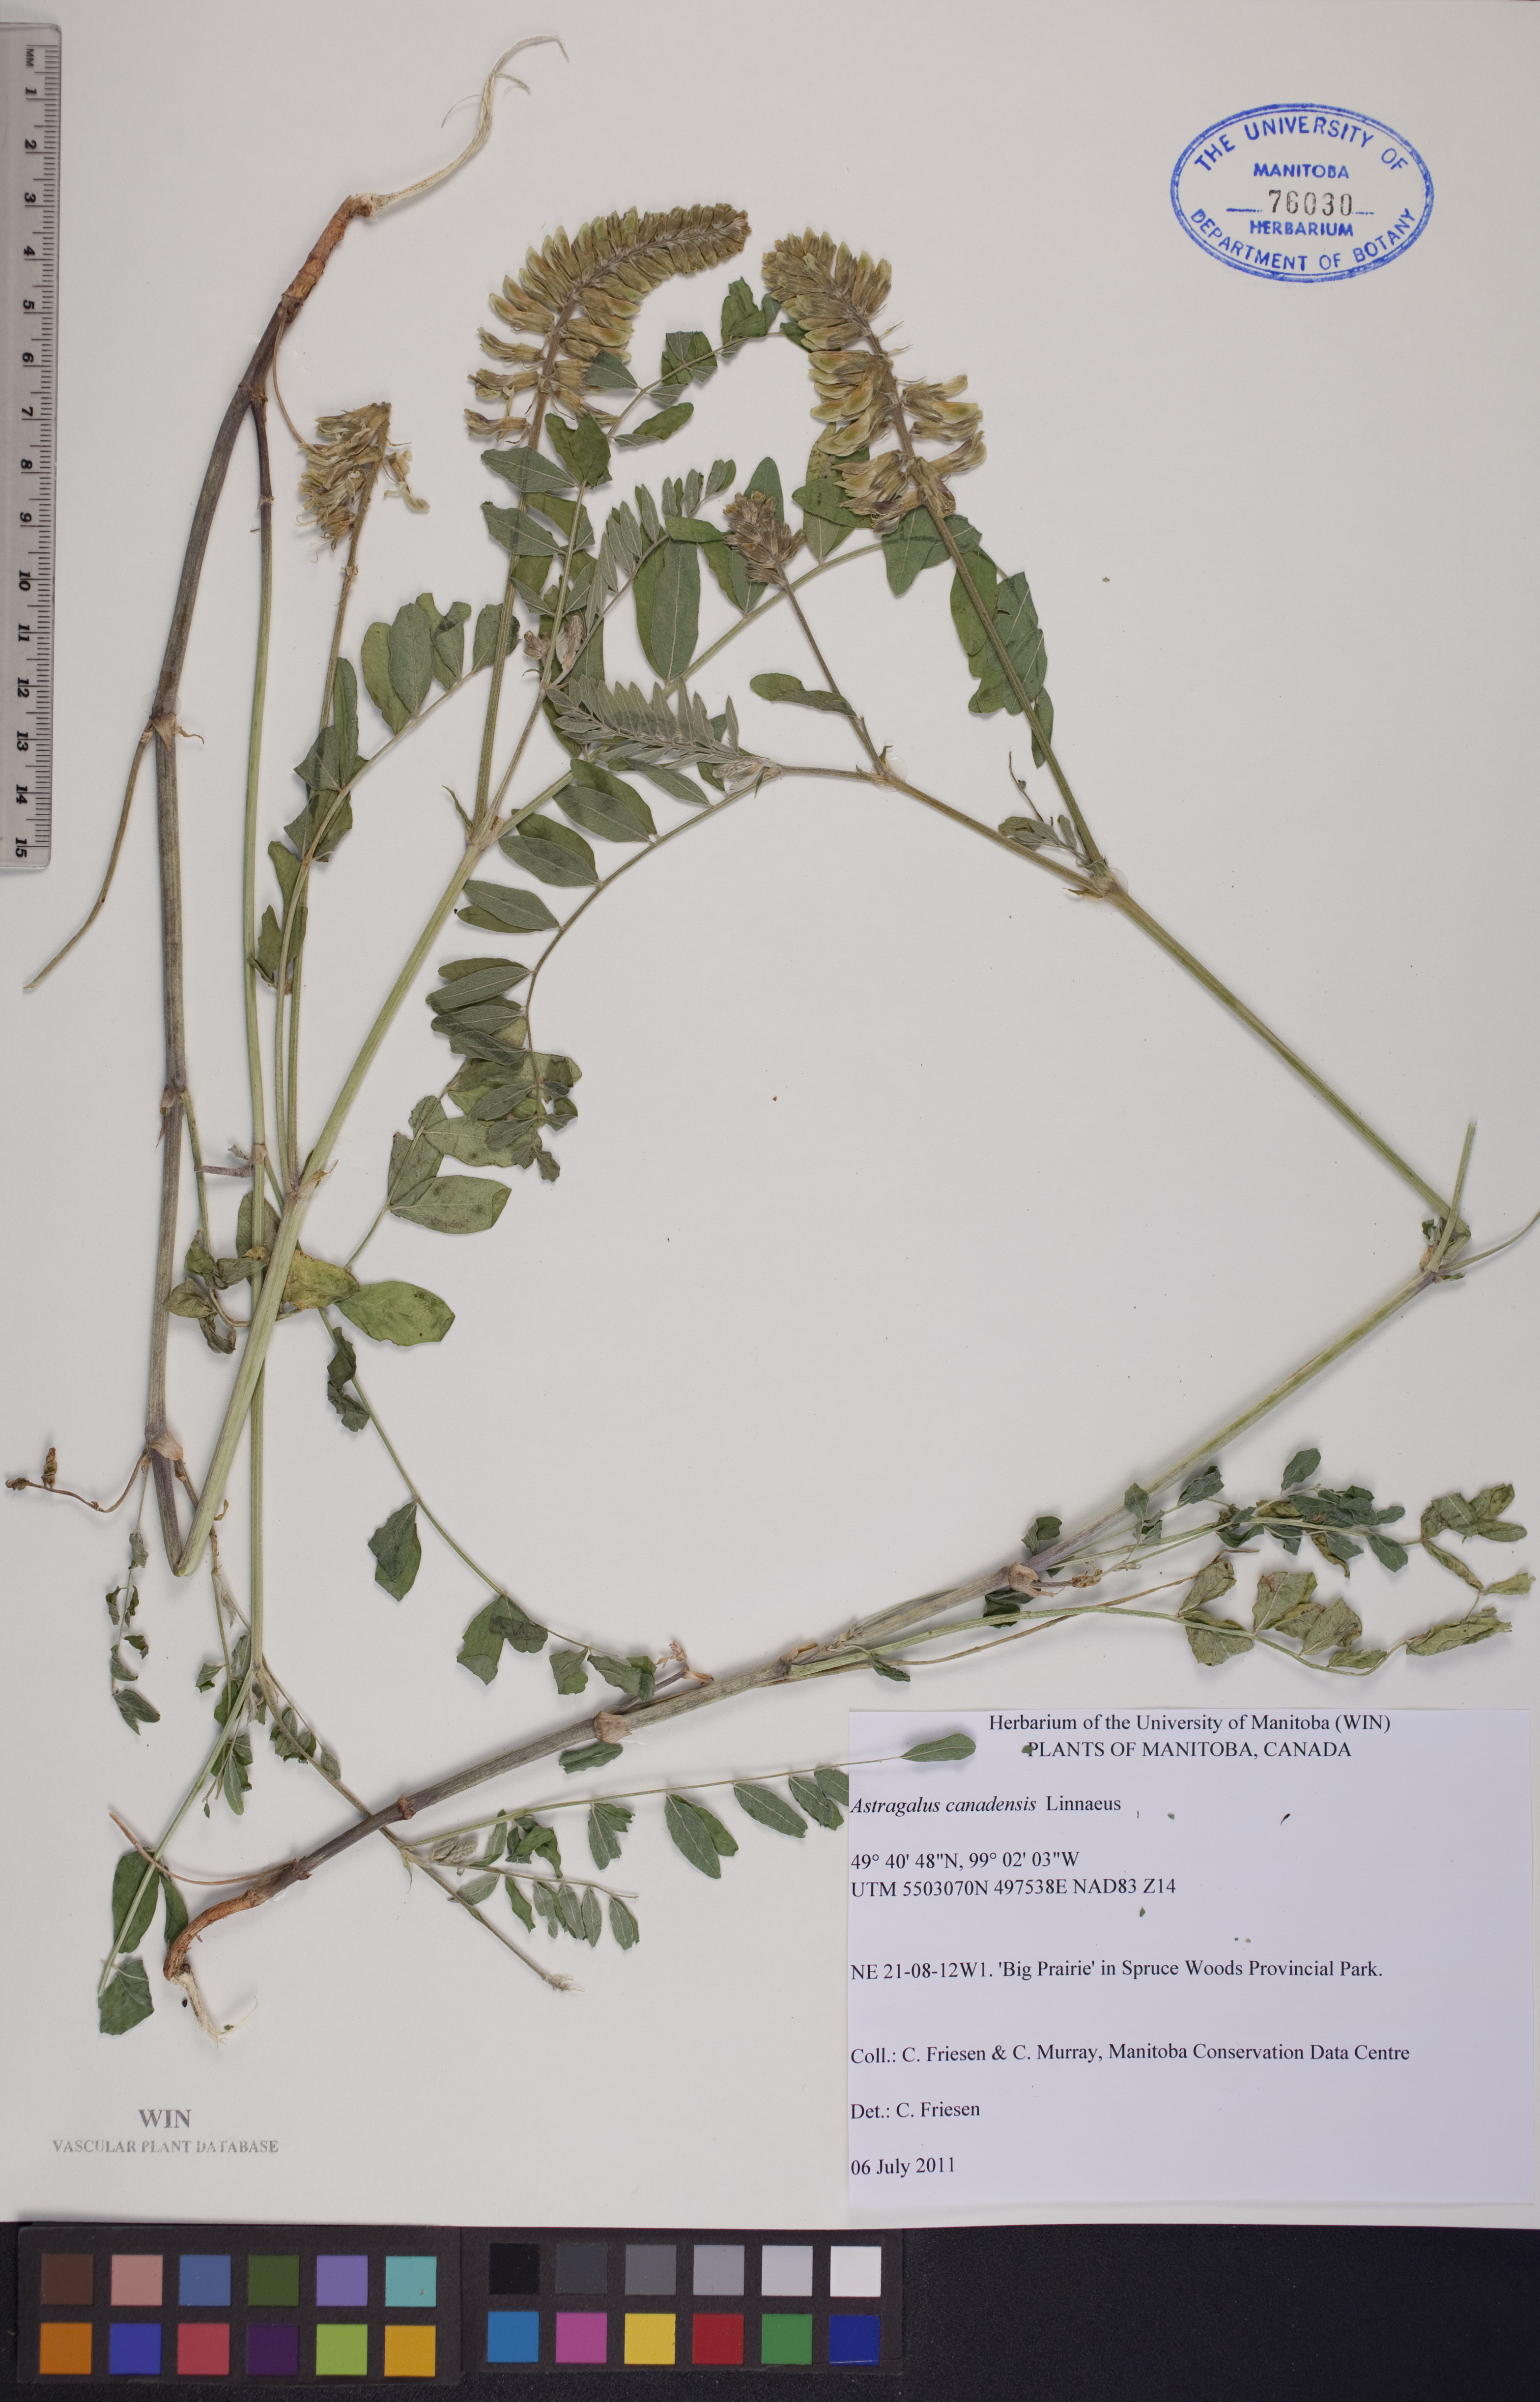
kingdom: Plantae
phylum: Tracheophyta
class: Magnoliopsida
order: Fabales
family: Fabaceae
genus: Astragalus
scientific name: Astragalus canadensis
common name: Canada milk-vetch
